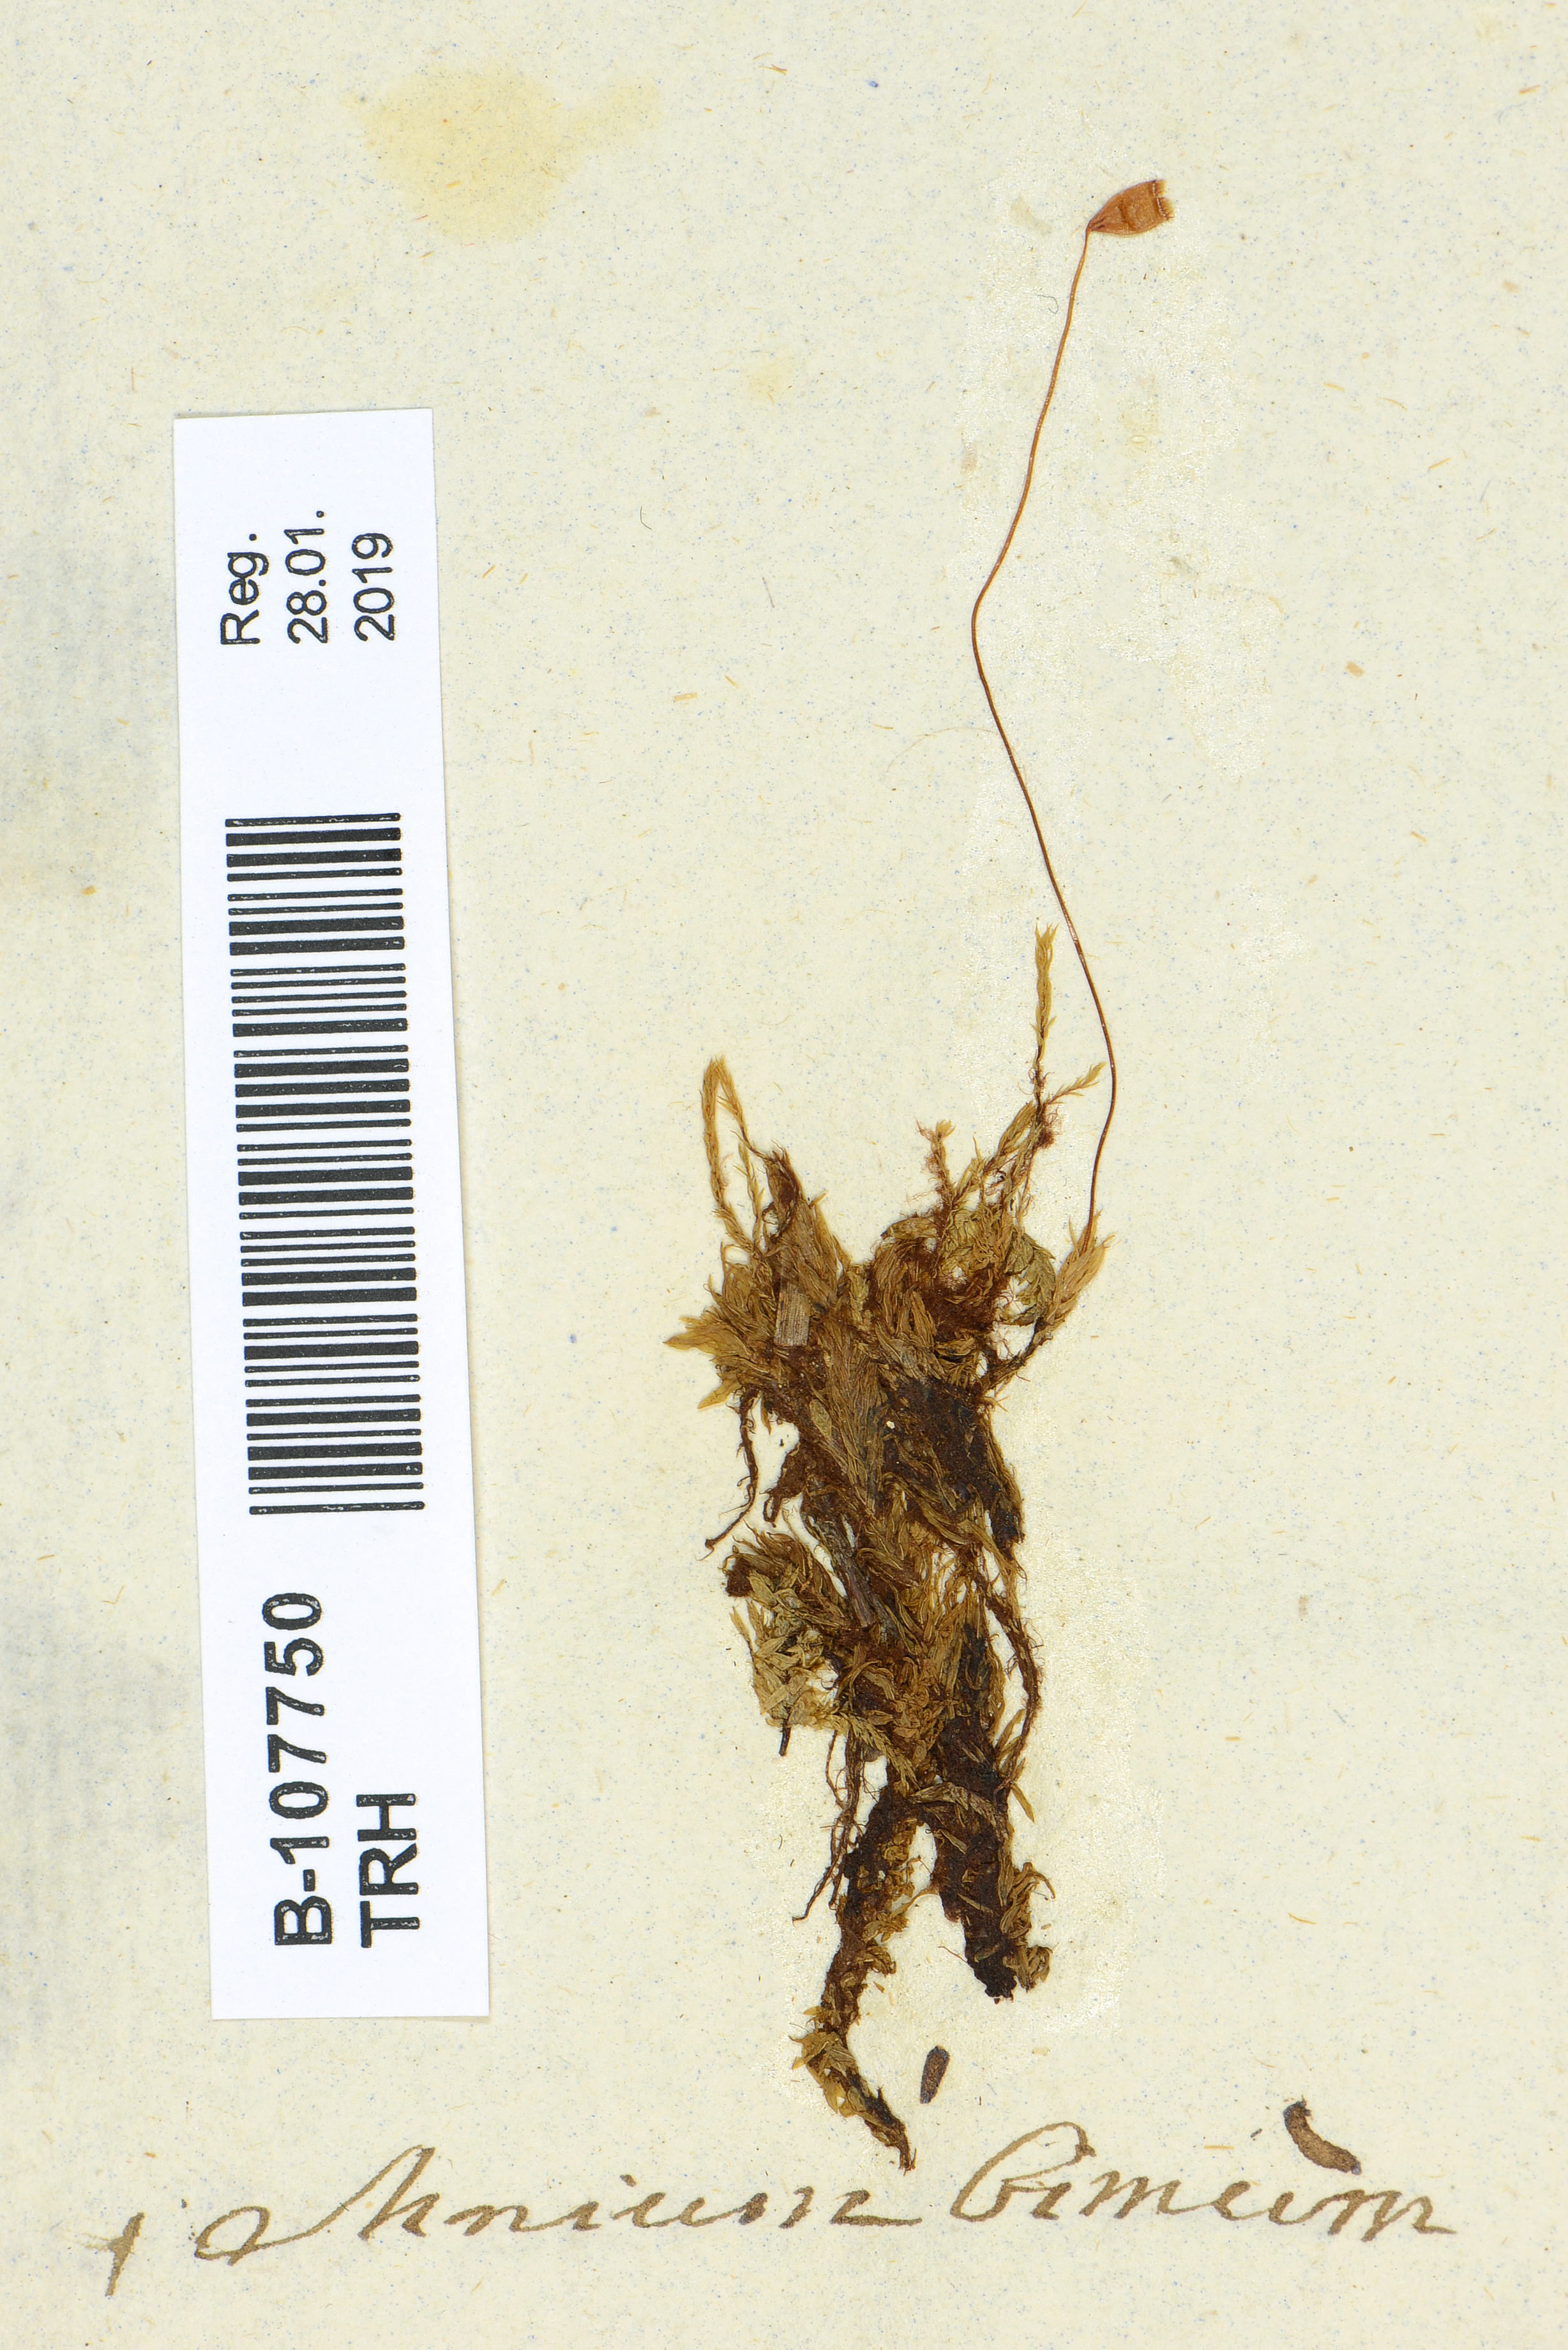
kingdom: Plantae
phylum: Bryophyta
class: Bryopsida
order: Aulacomniales
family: Aulacomniaceae
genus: Aulacomnium
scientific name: Aulacomnium palustre
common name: Bog groove-moss
